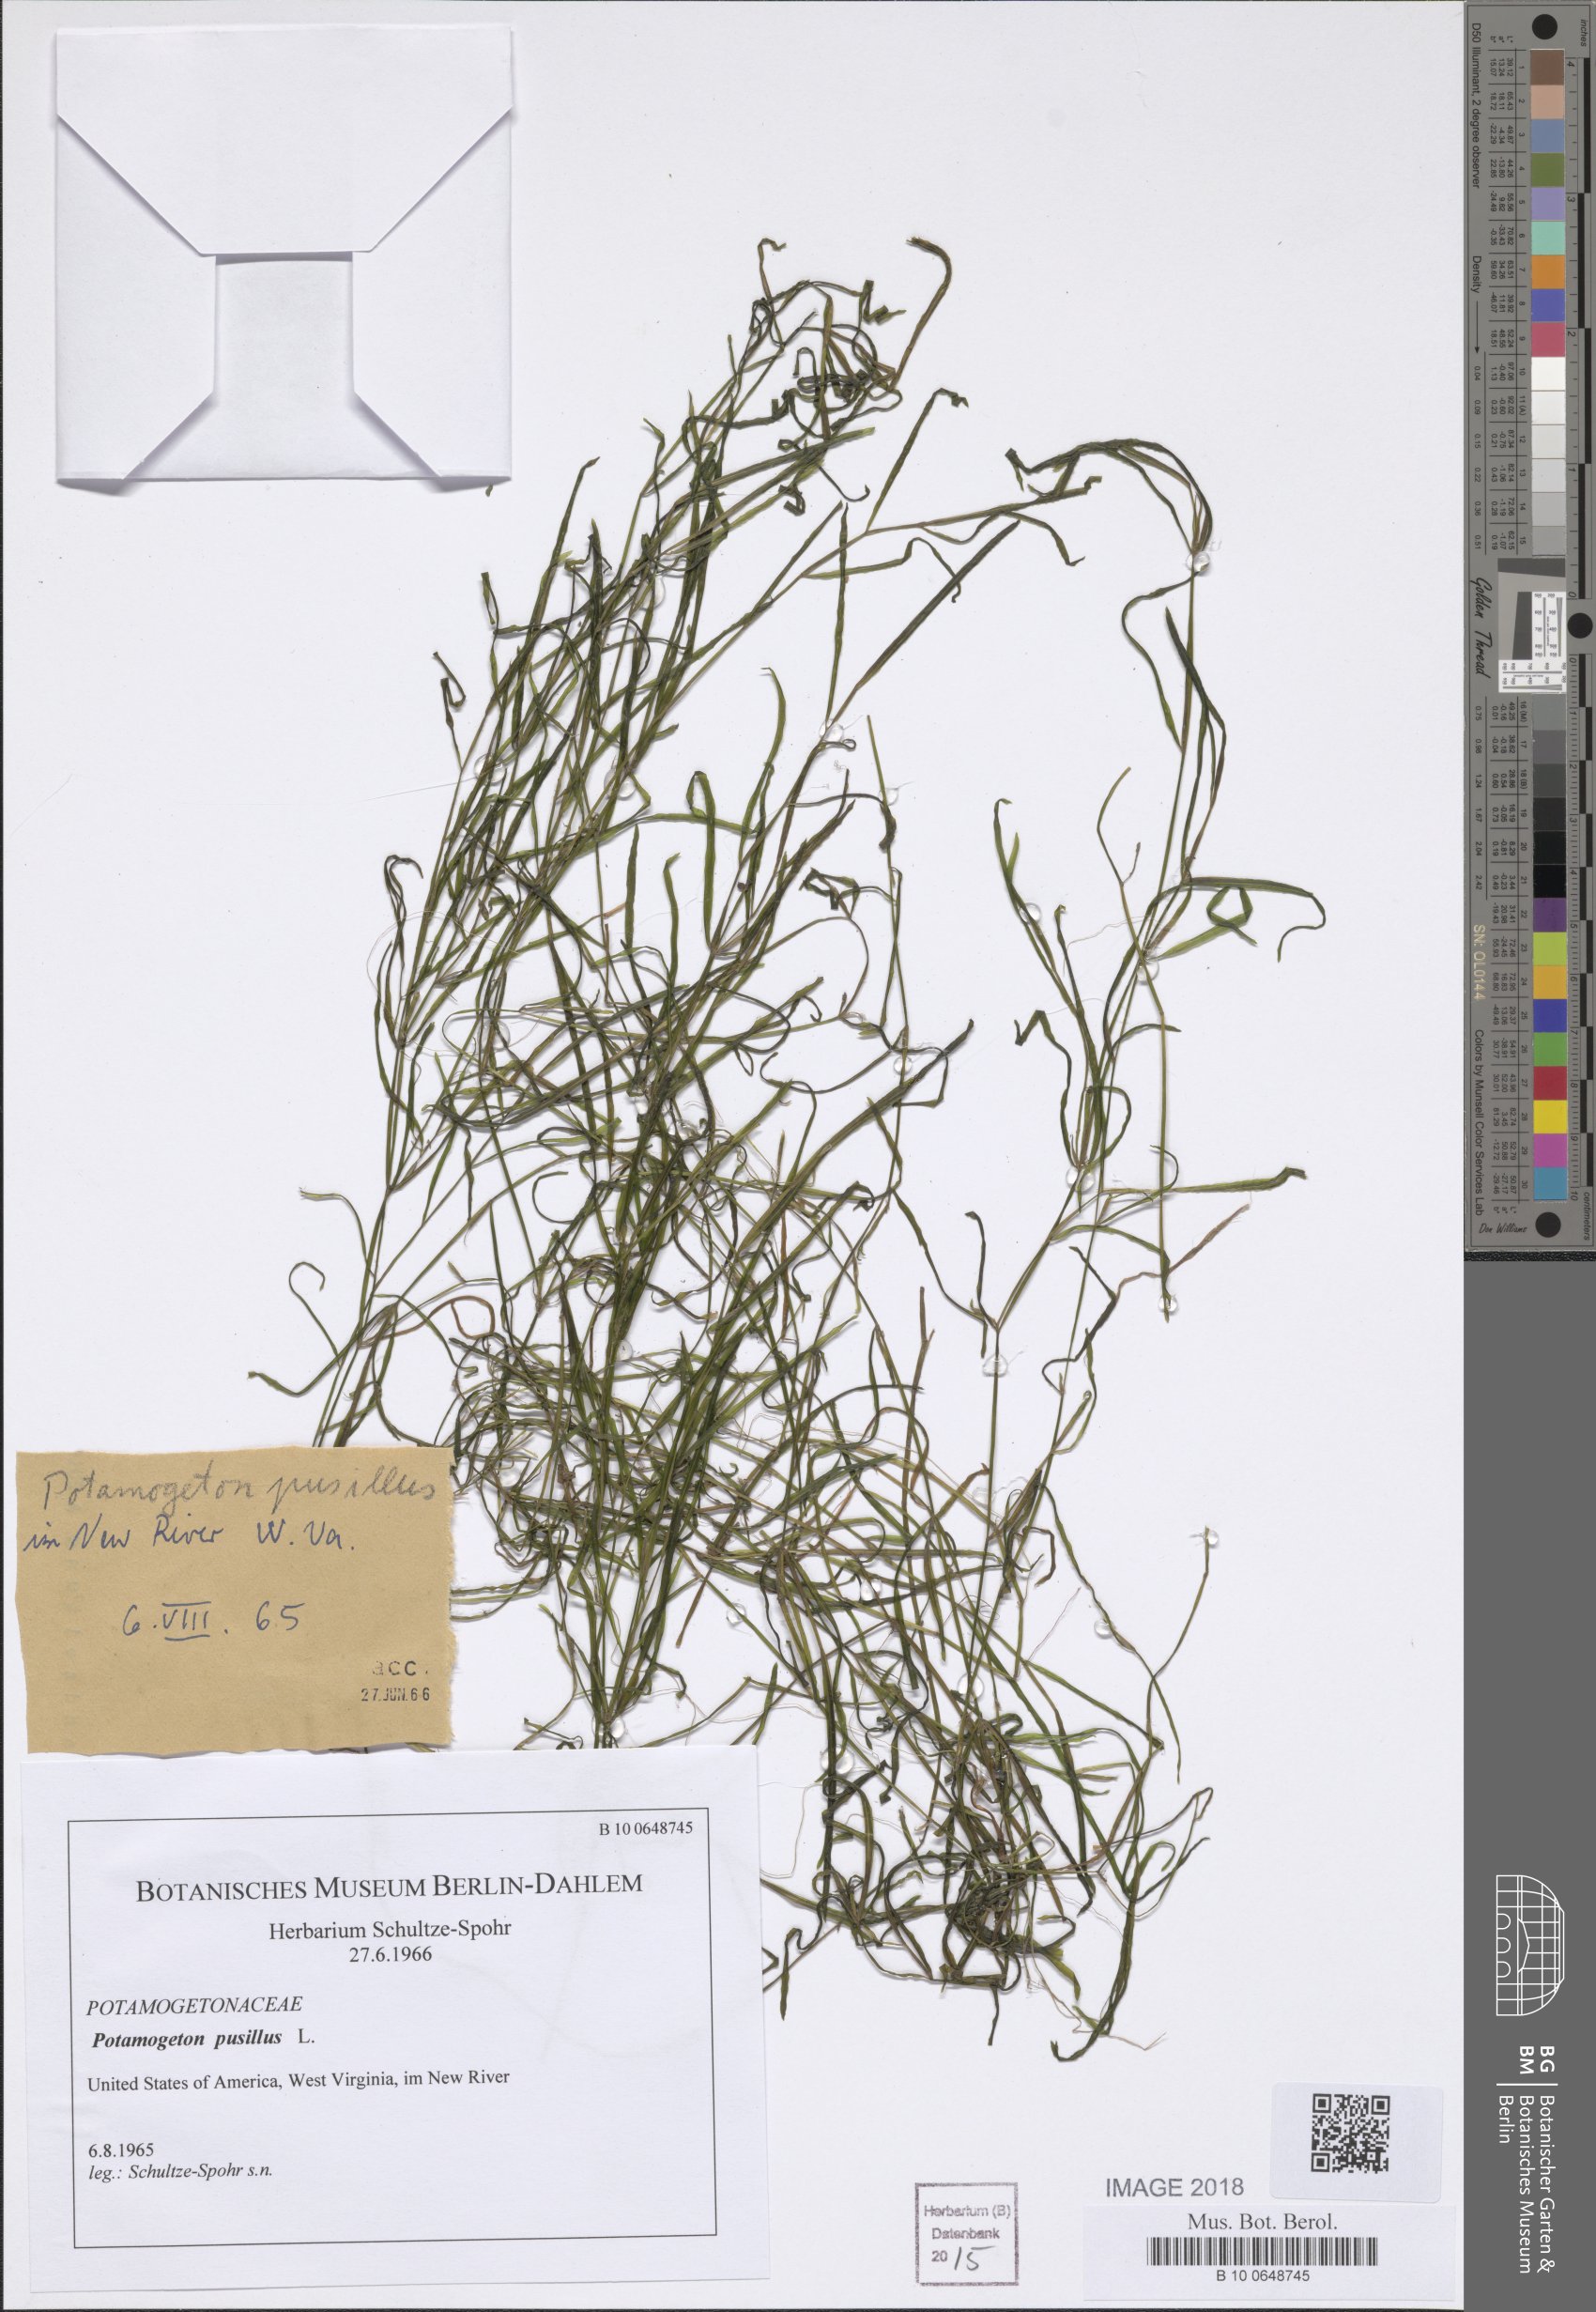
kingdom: Plantae
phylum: Tracheophyta
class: Liliopsida
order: Alismatales
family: Potamogetonaceae
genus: Potamogeton
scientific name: Potamogeton pusillus
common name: Lesser pondweed
